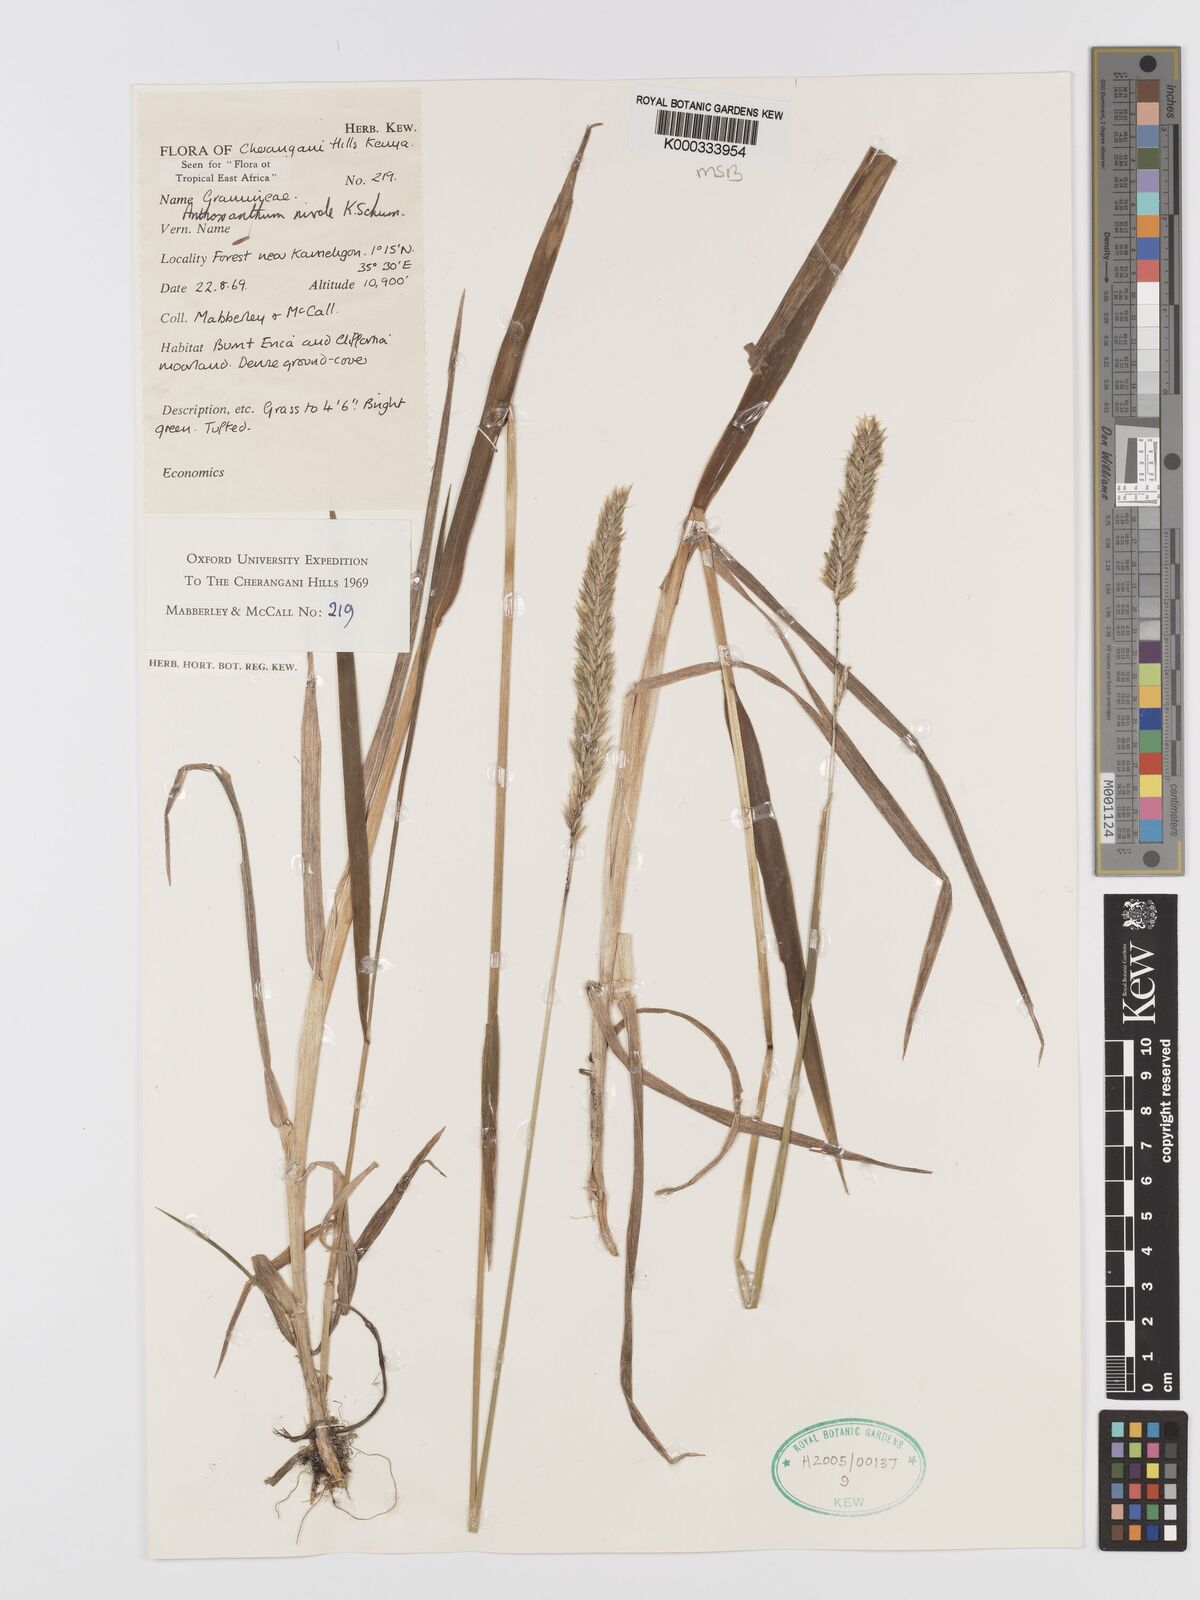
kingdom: Plantae
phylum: Tracheophyta
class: Liliopsida
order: Poales
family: Poaceae
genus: Anthoxanthum
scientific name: Anthoxanthum
